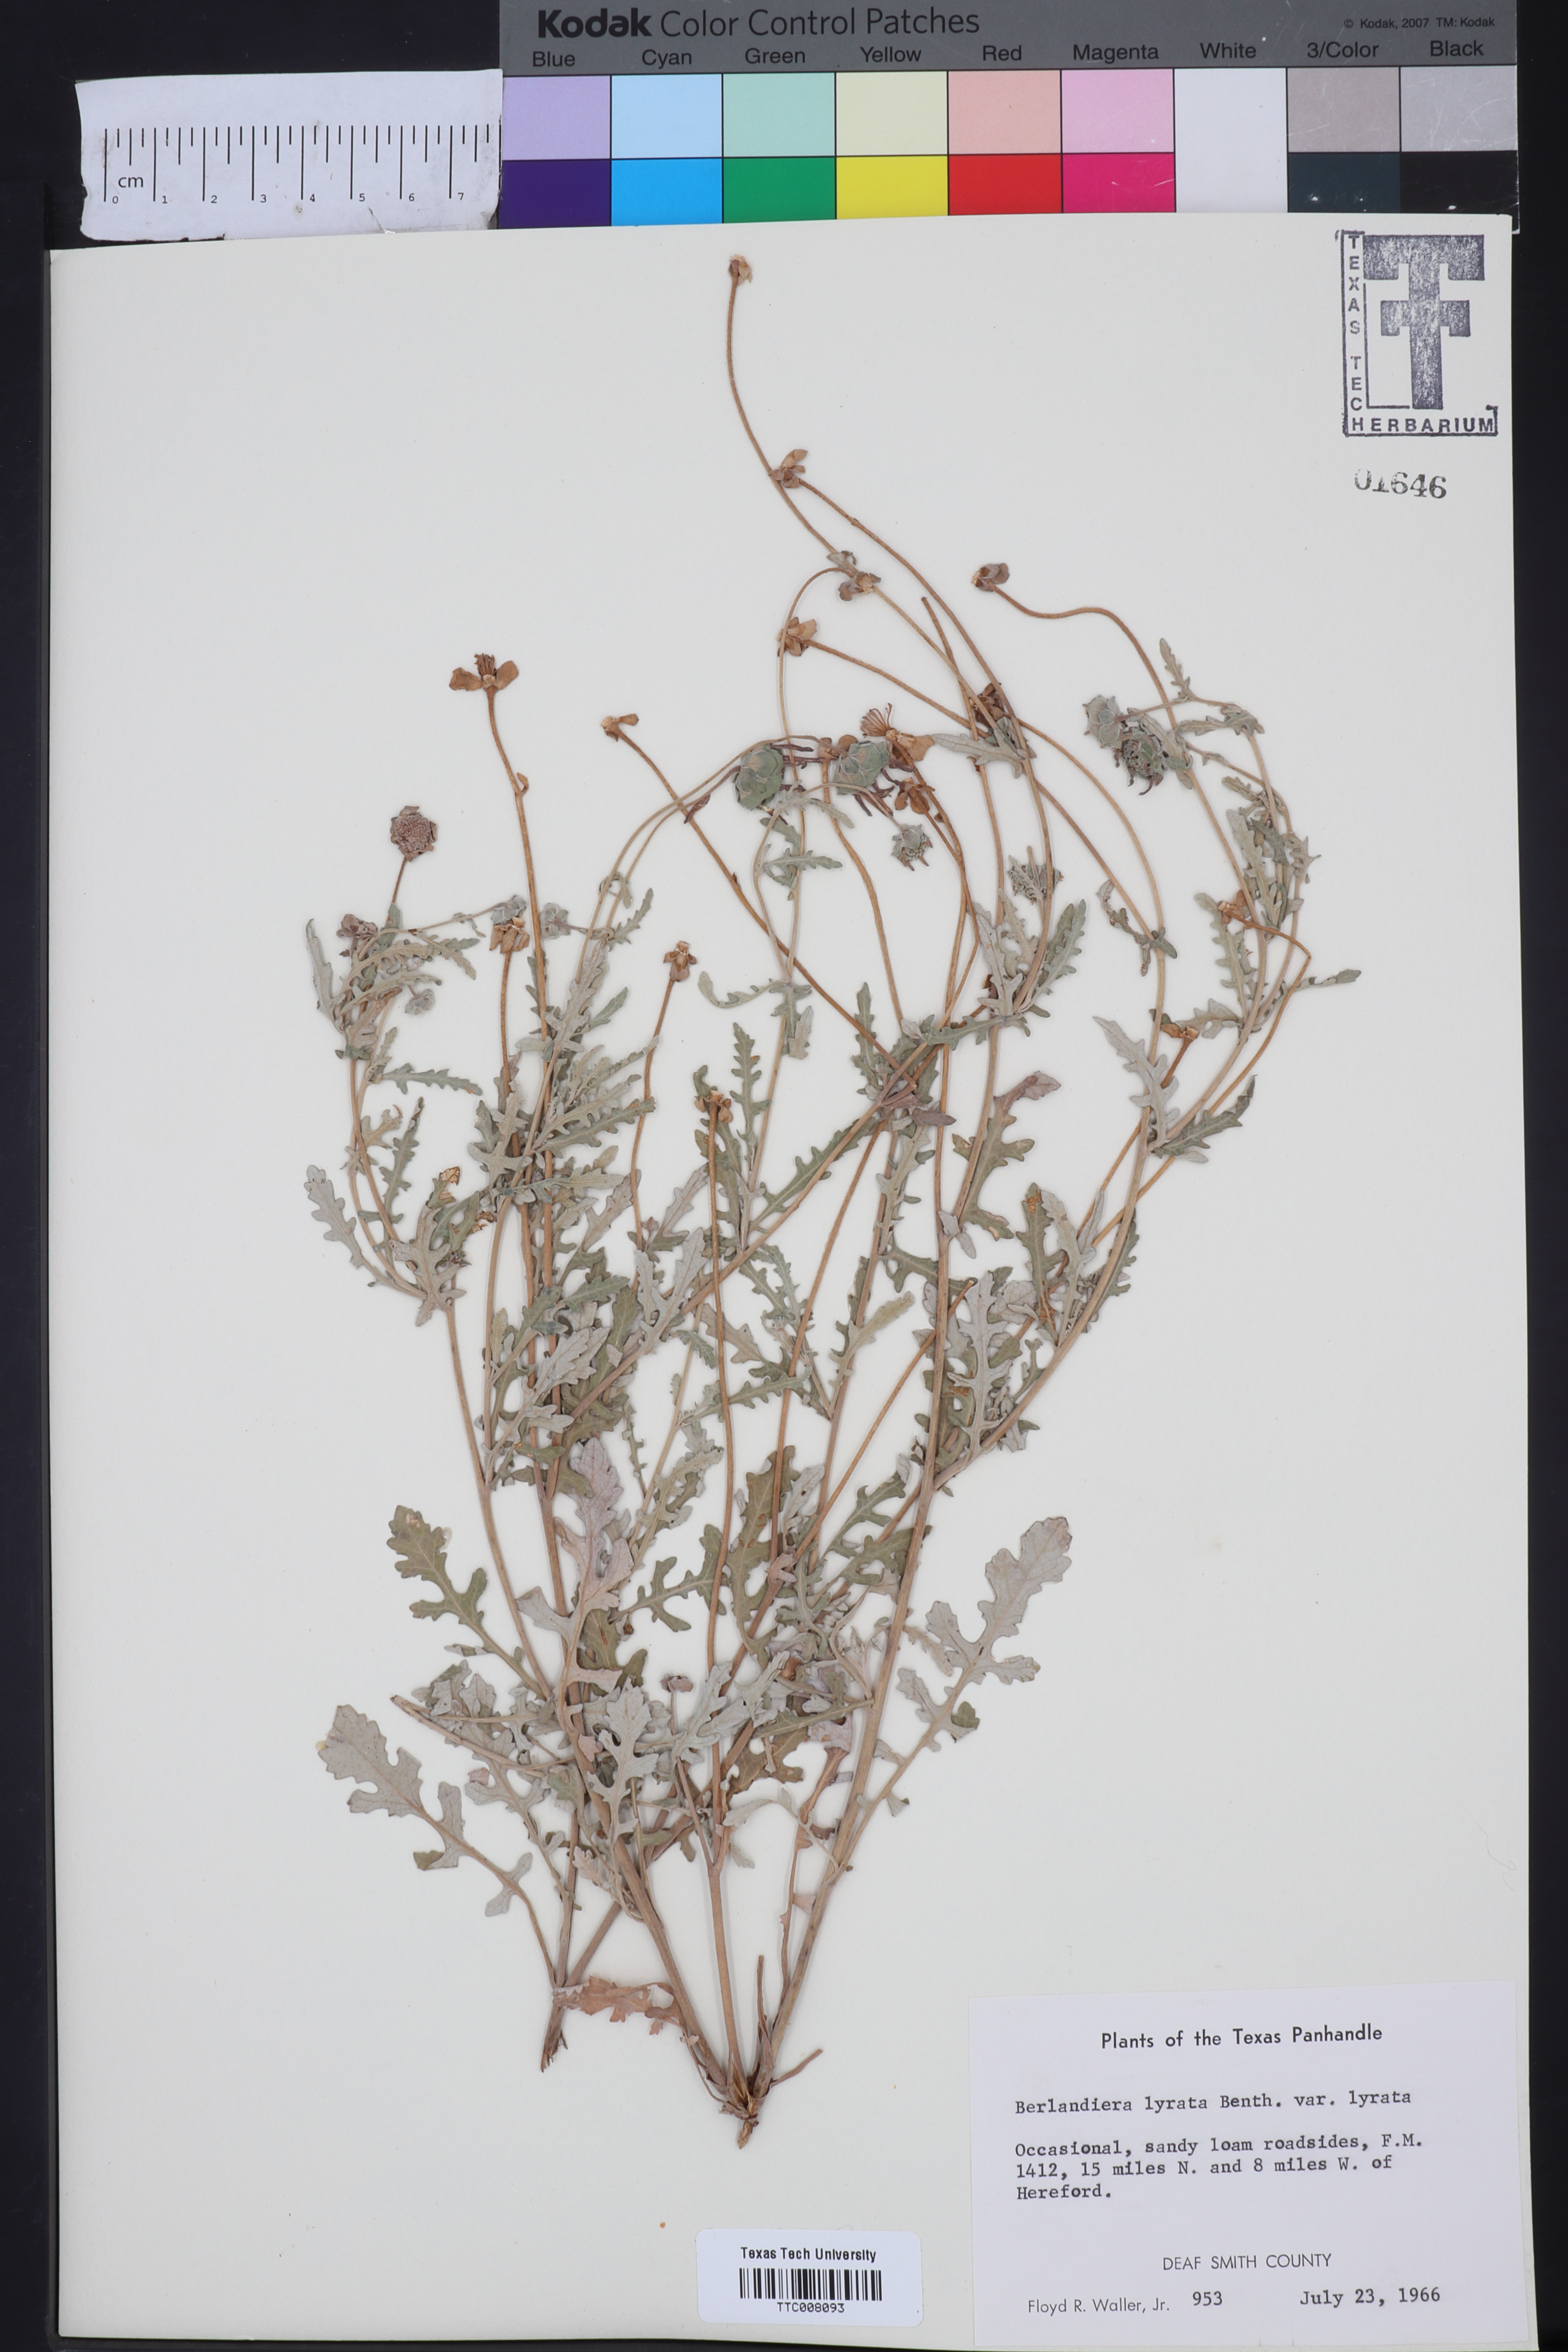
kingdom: Plantae
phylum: Tracheophyta
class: Magnoliopsida
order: Asterales
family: Asteraceae
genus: Berlandiera
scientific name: Berlandiera lyrata
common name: Chocolate-flower
